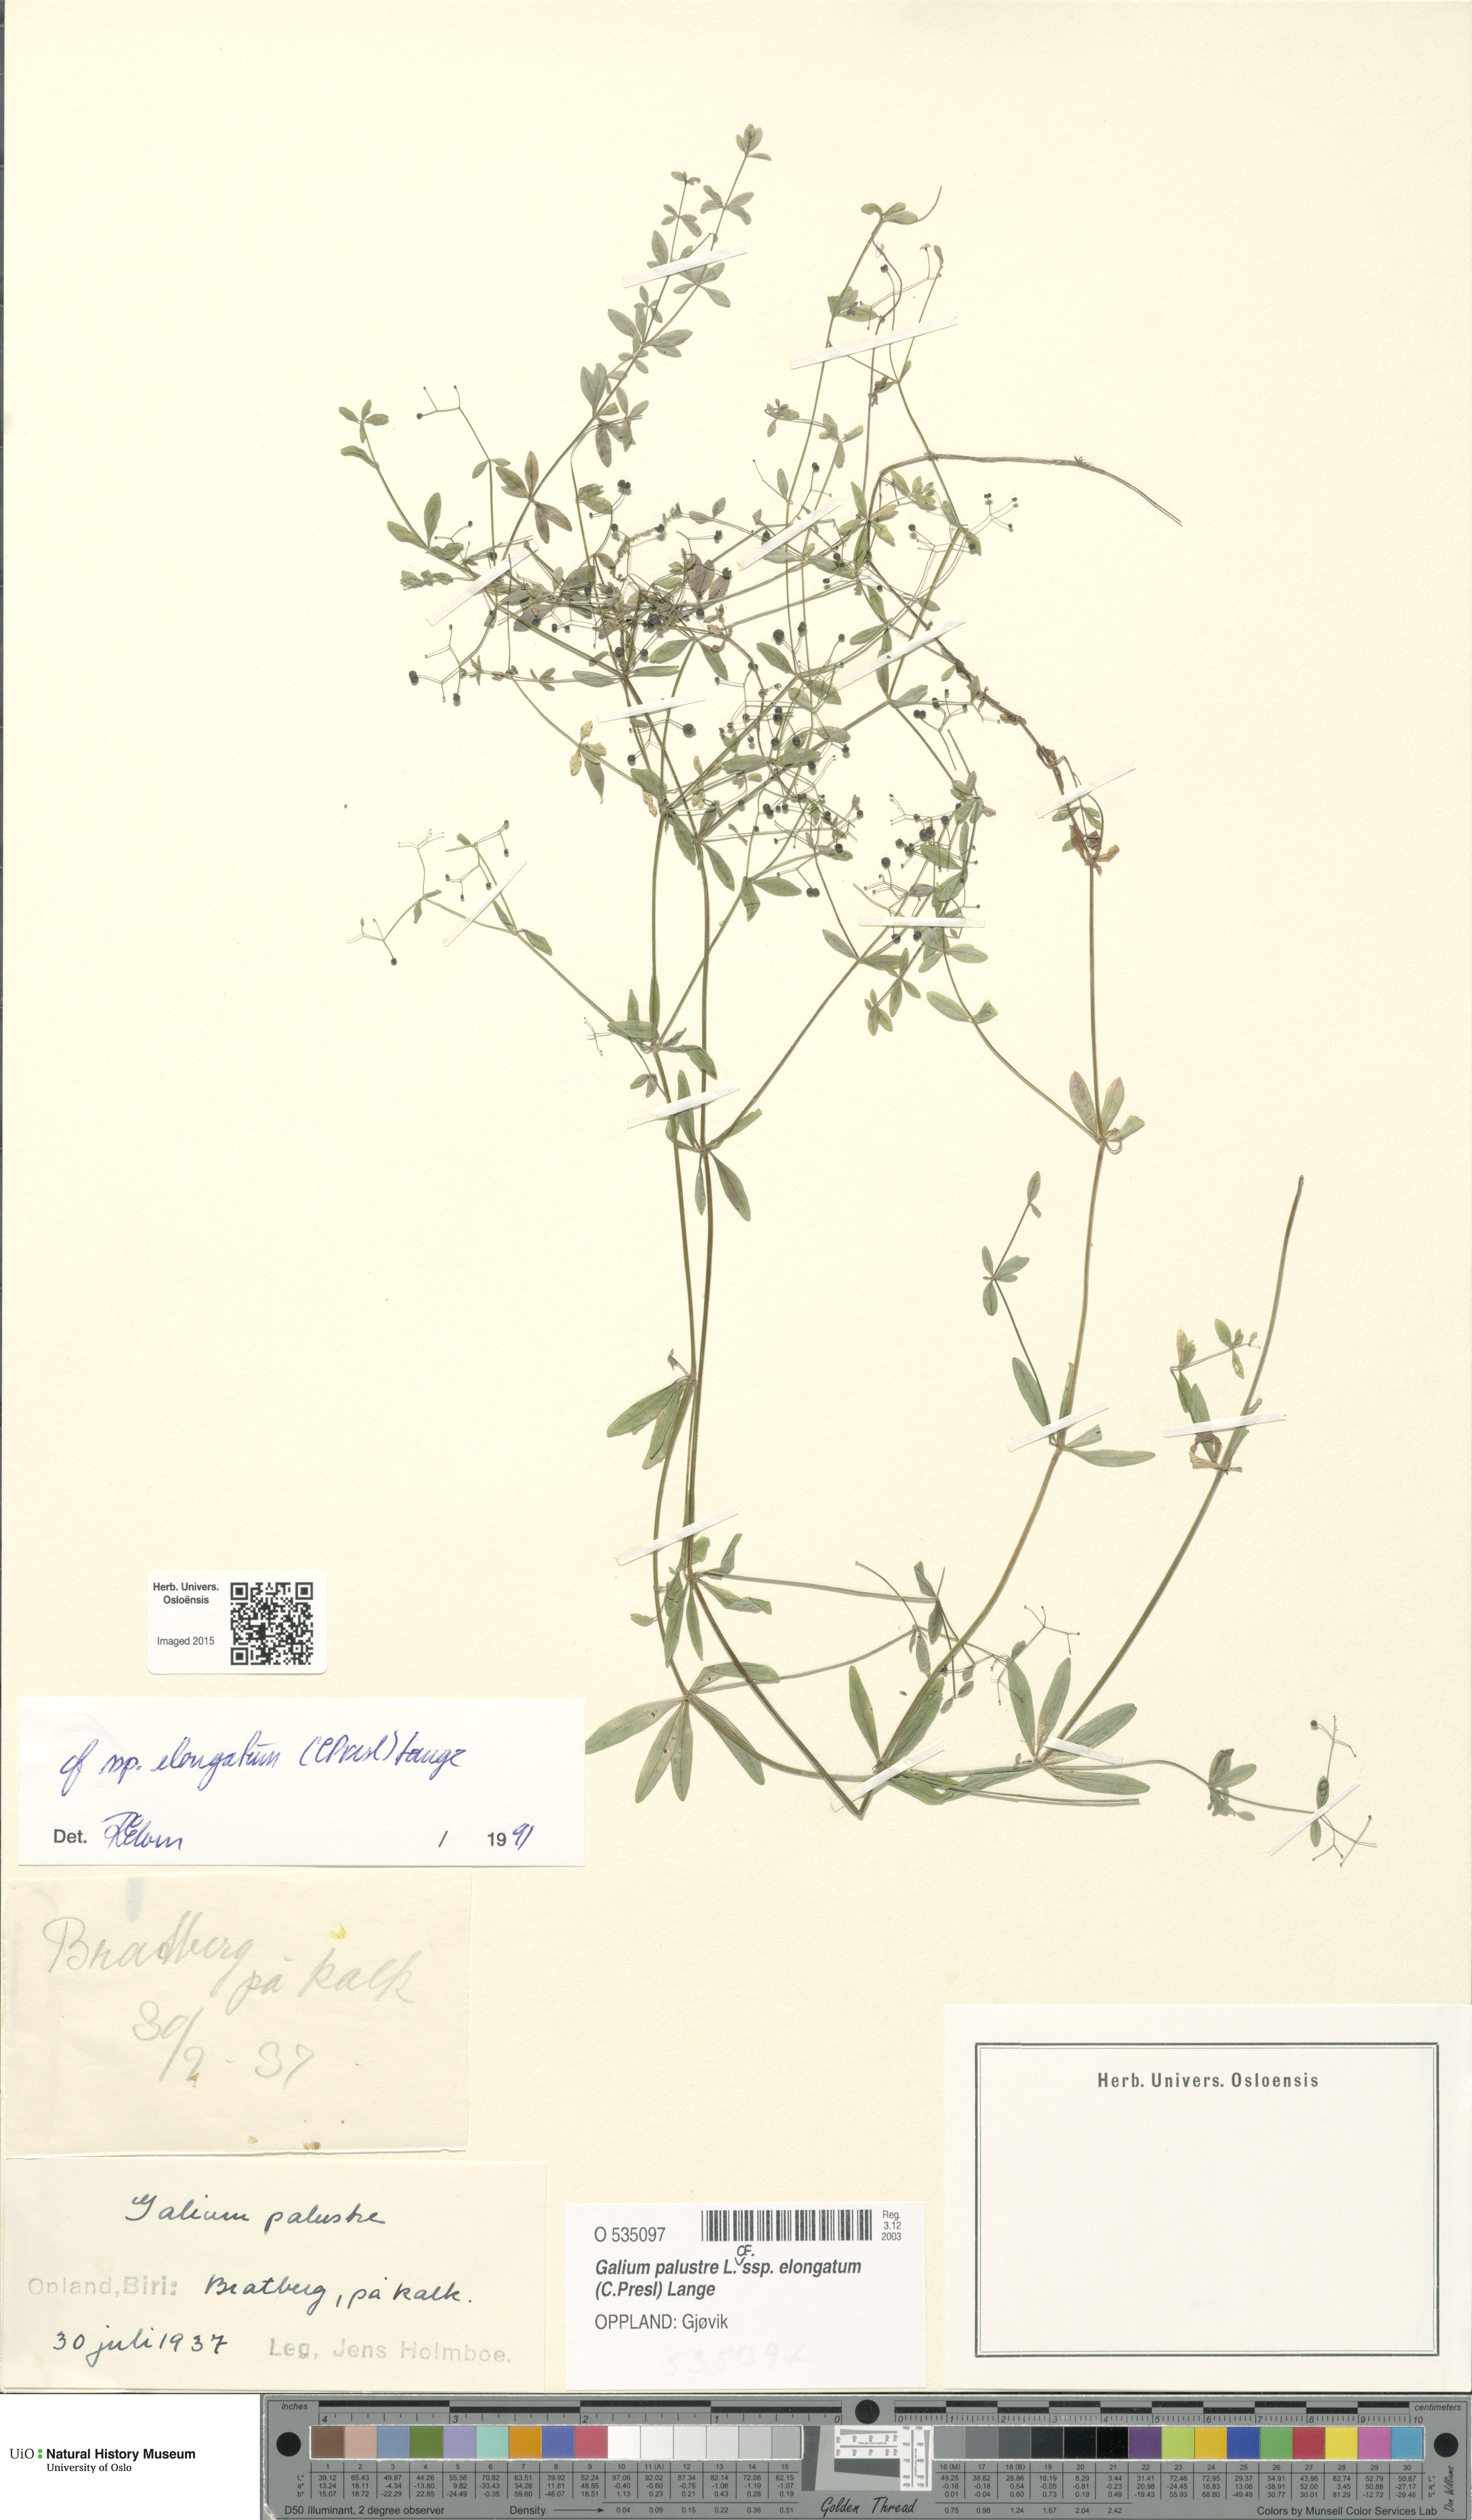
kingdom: Plantae
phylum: Tracheophyta
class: Magnoliopsida
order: Gentianales
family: Rubiaceae
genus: Galium
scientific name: Galium elongatum
